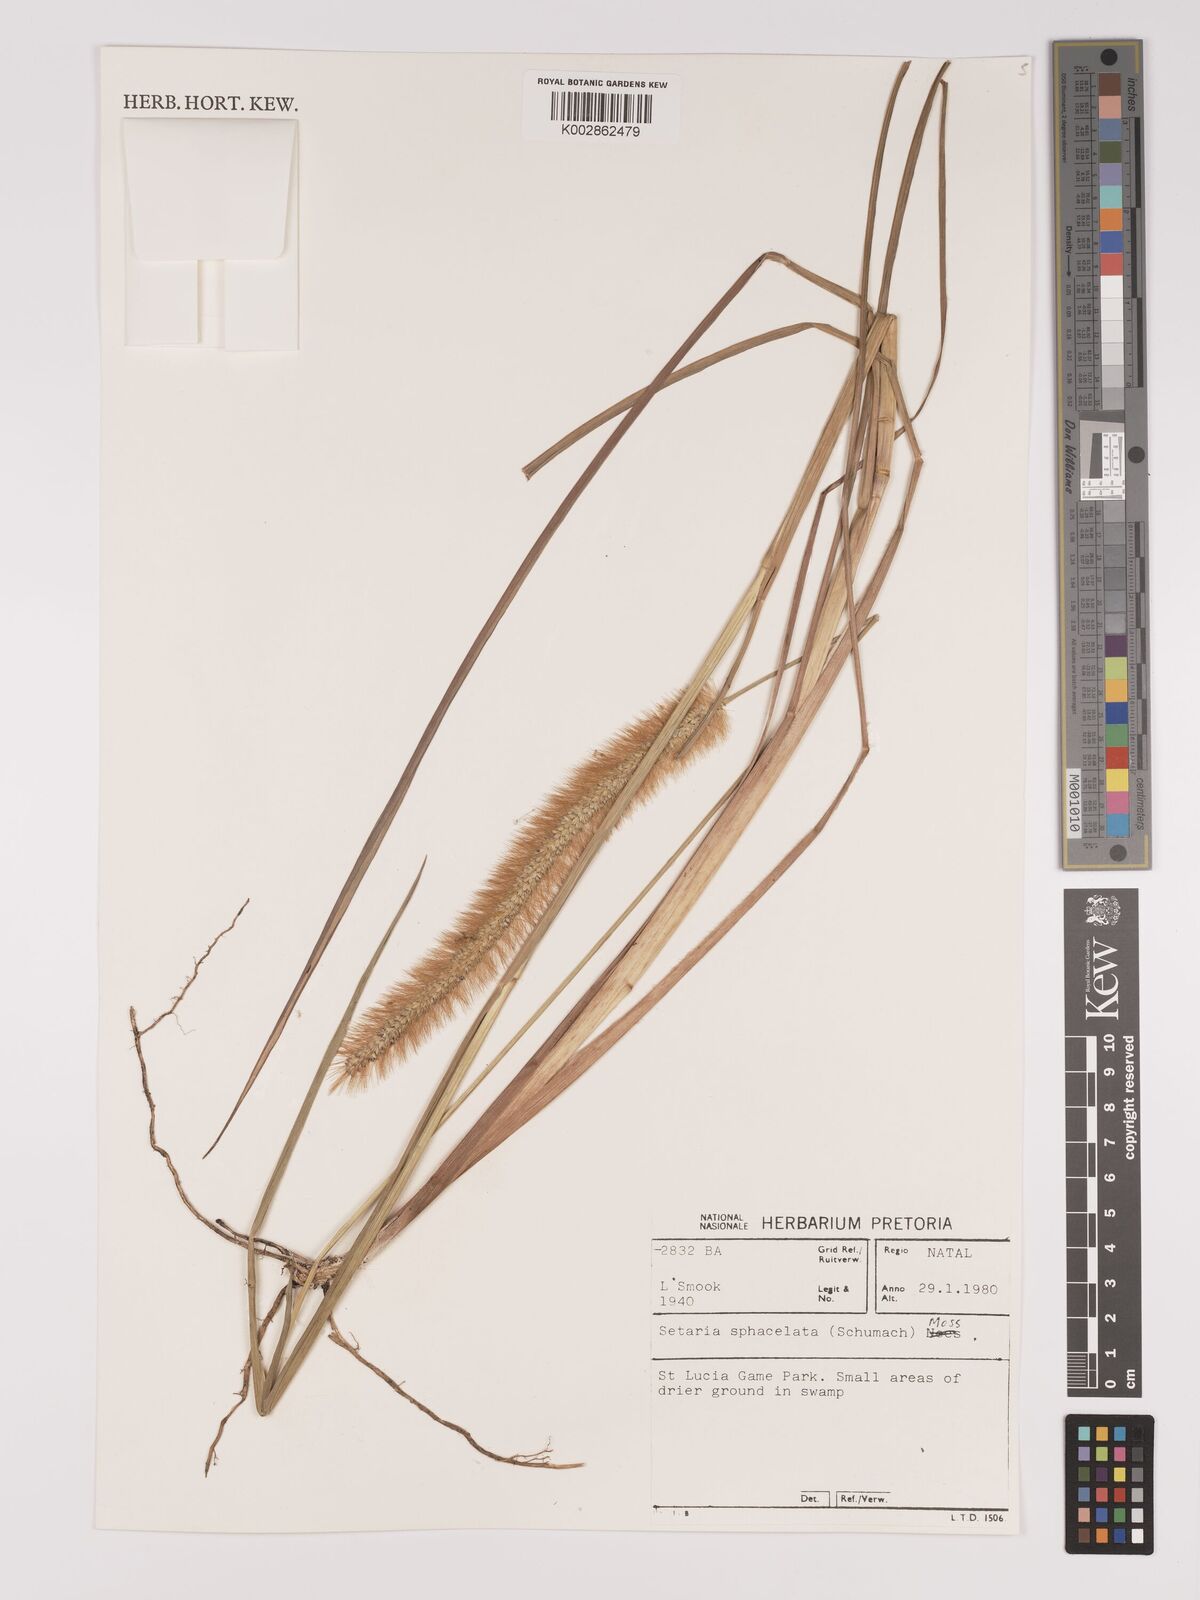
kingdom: Plantae
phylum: Tracheophyta
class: Liliopsida
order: Poales
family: Poaceae
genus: Setaria
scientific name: Setaria sphacelata
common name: African bristlegrass
